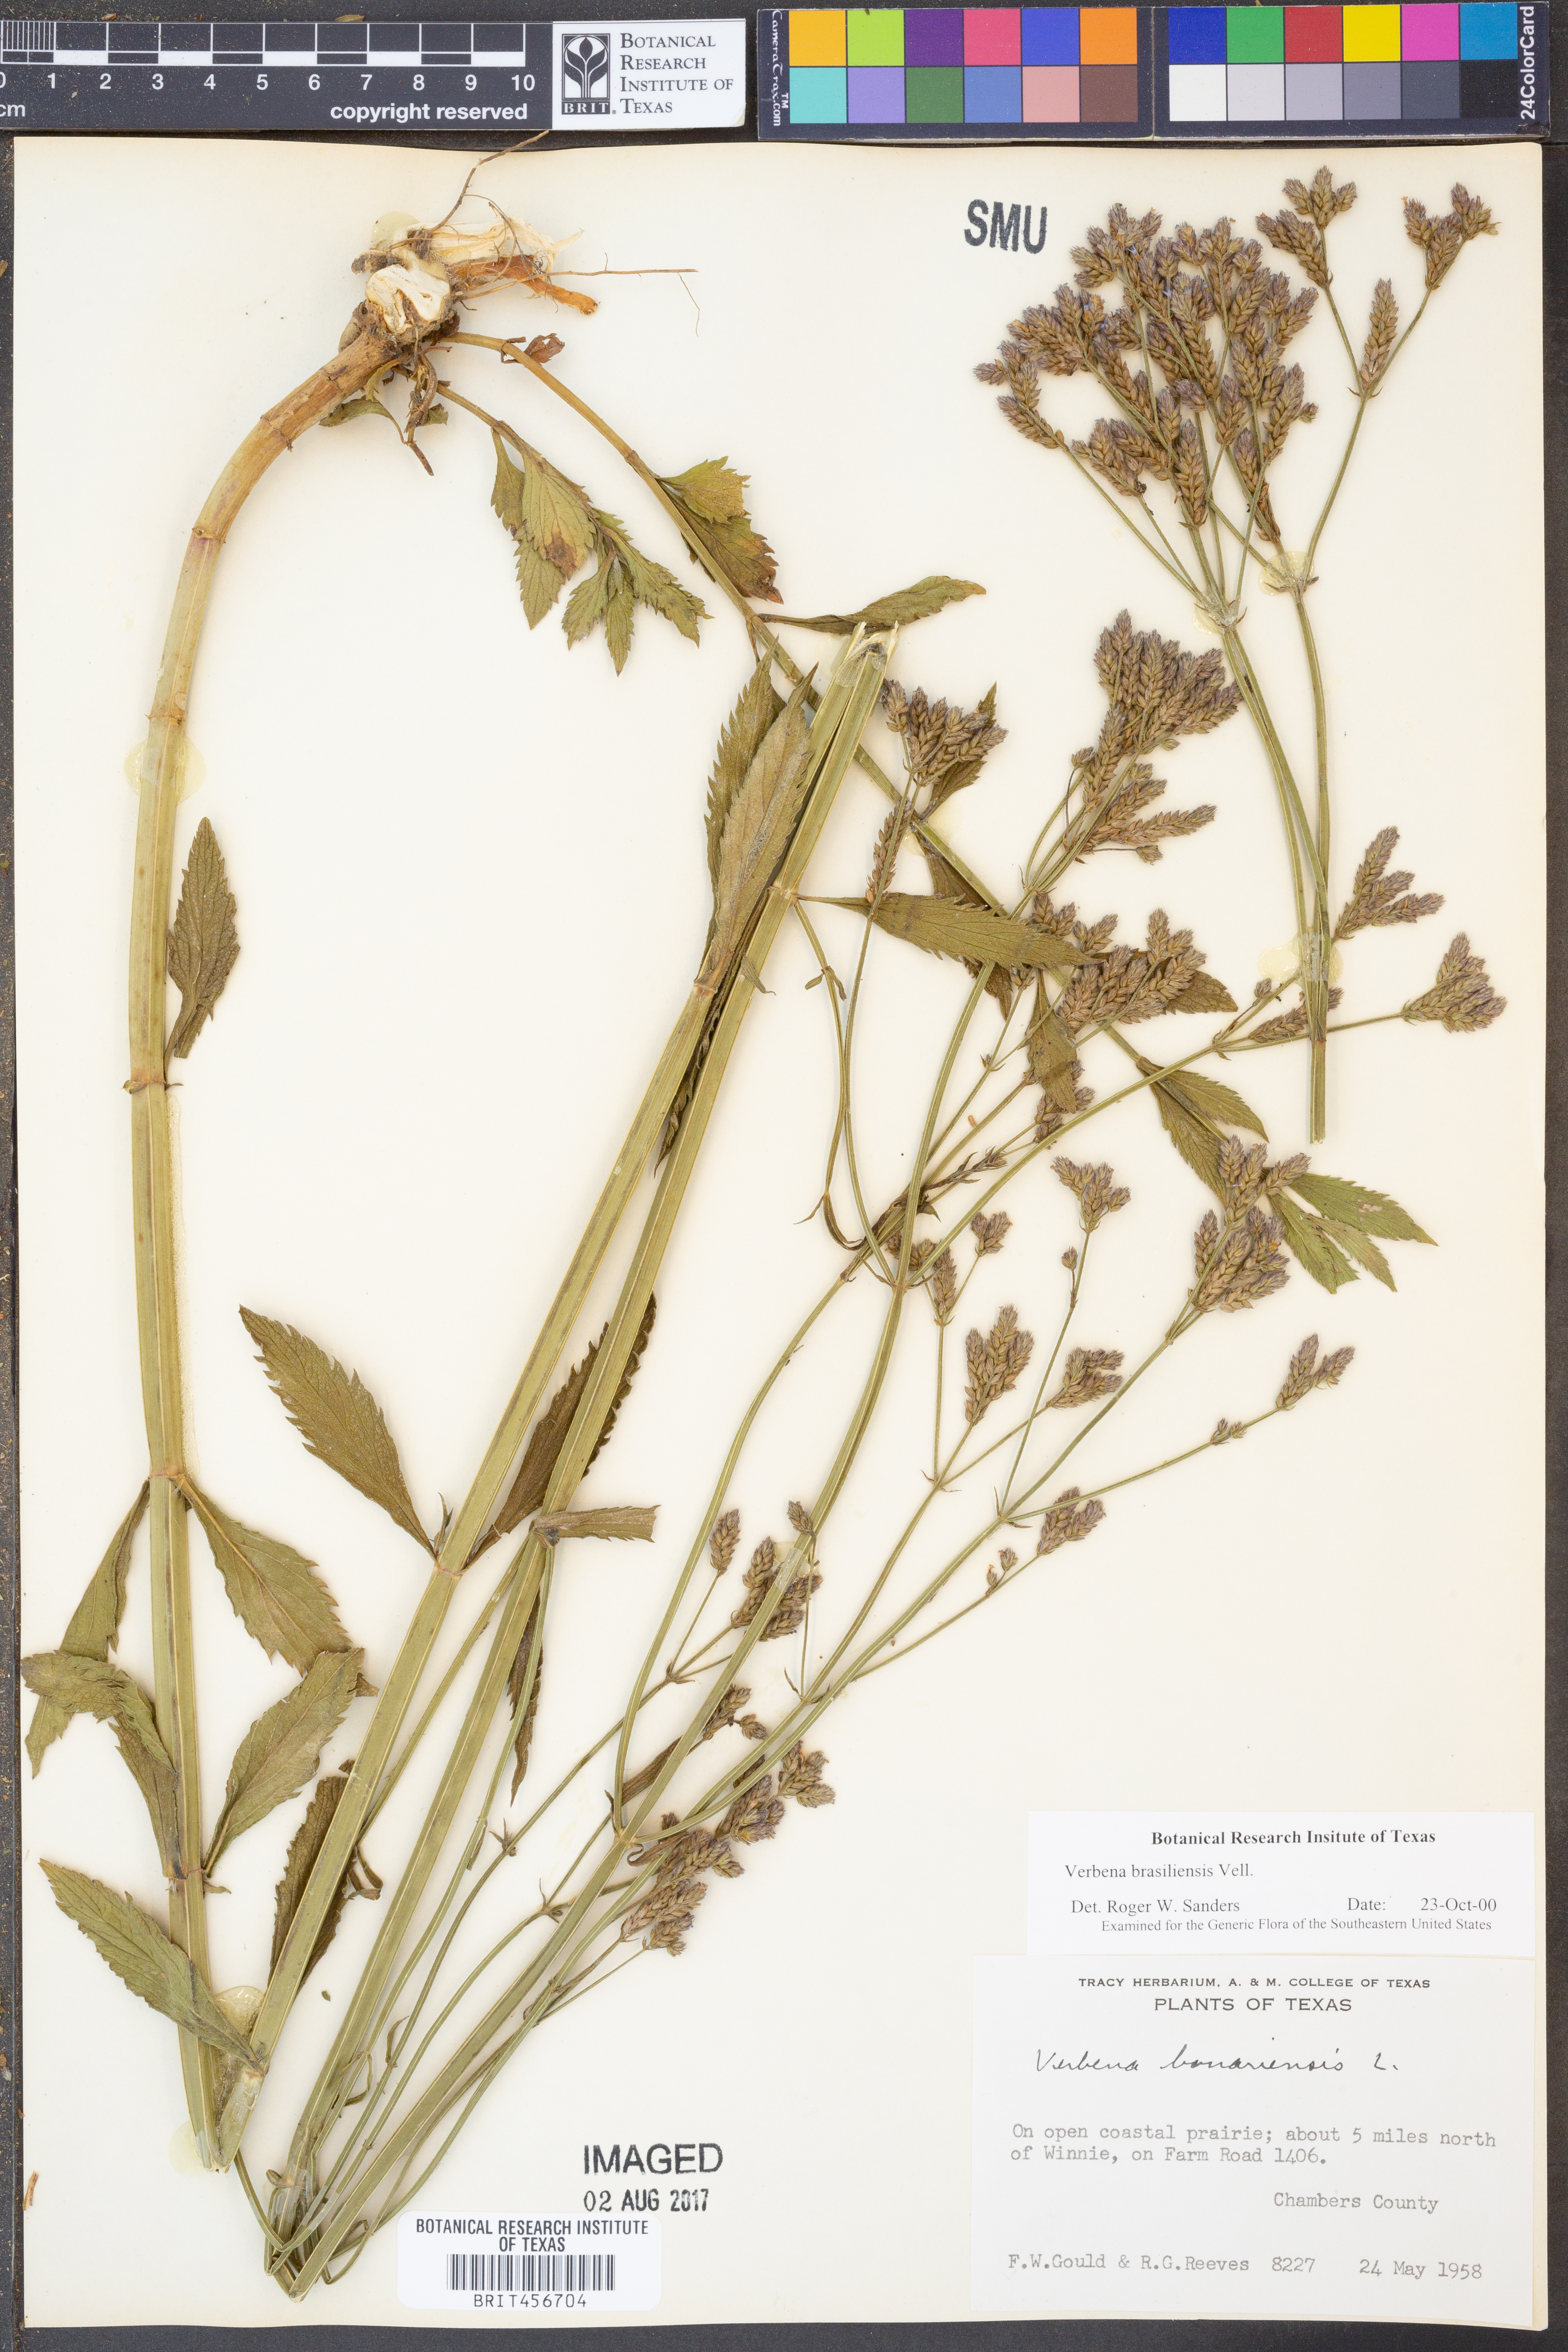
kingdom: Plantae
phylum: Tracheophyta
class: Magnoliopsida
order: Lamiales
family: Verbenaceae
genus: Verbena
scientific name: Verbena brasiliensis
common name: Brazilian vervain
